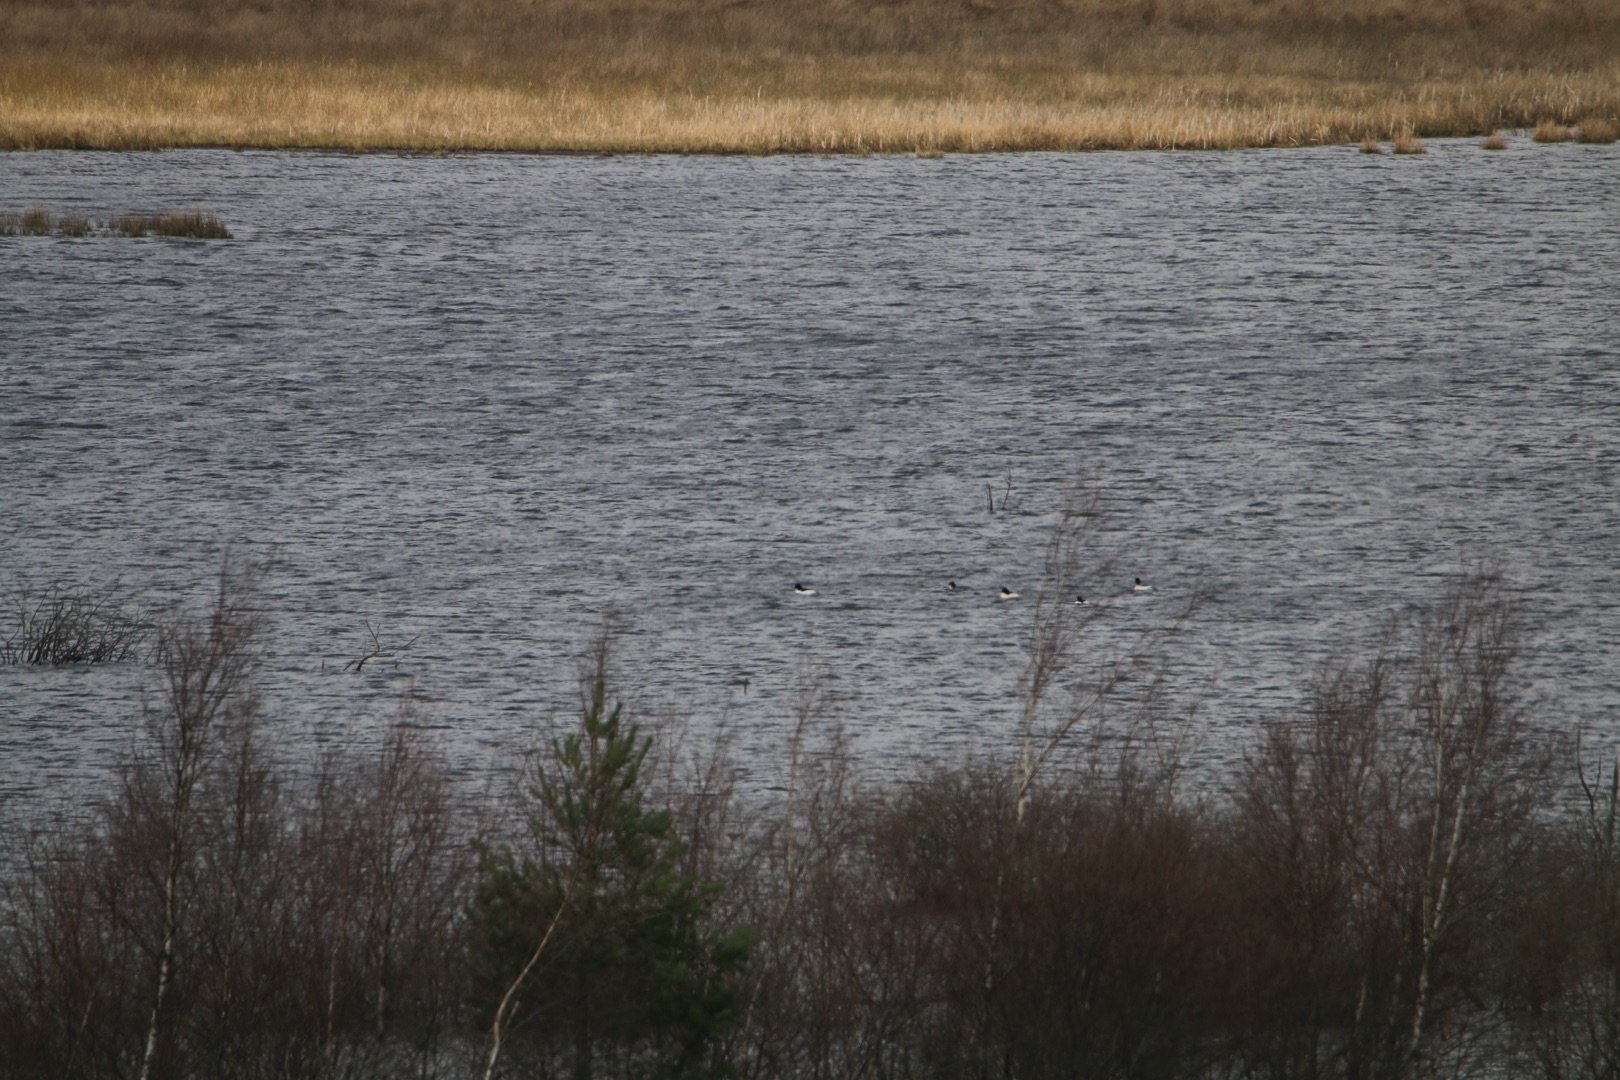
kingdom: Animalia
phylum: Chordata
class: Aves
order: Anseriformes
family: Anatidae
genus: Mergus
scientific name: Mergus merganser
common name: Stor skallesluger
